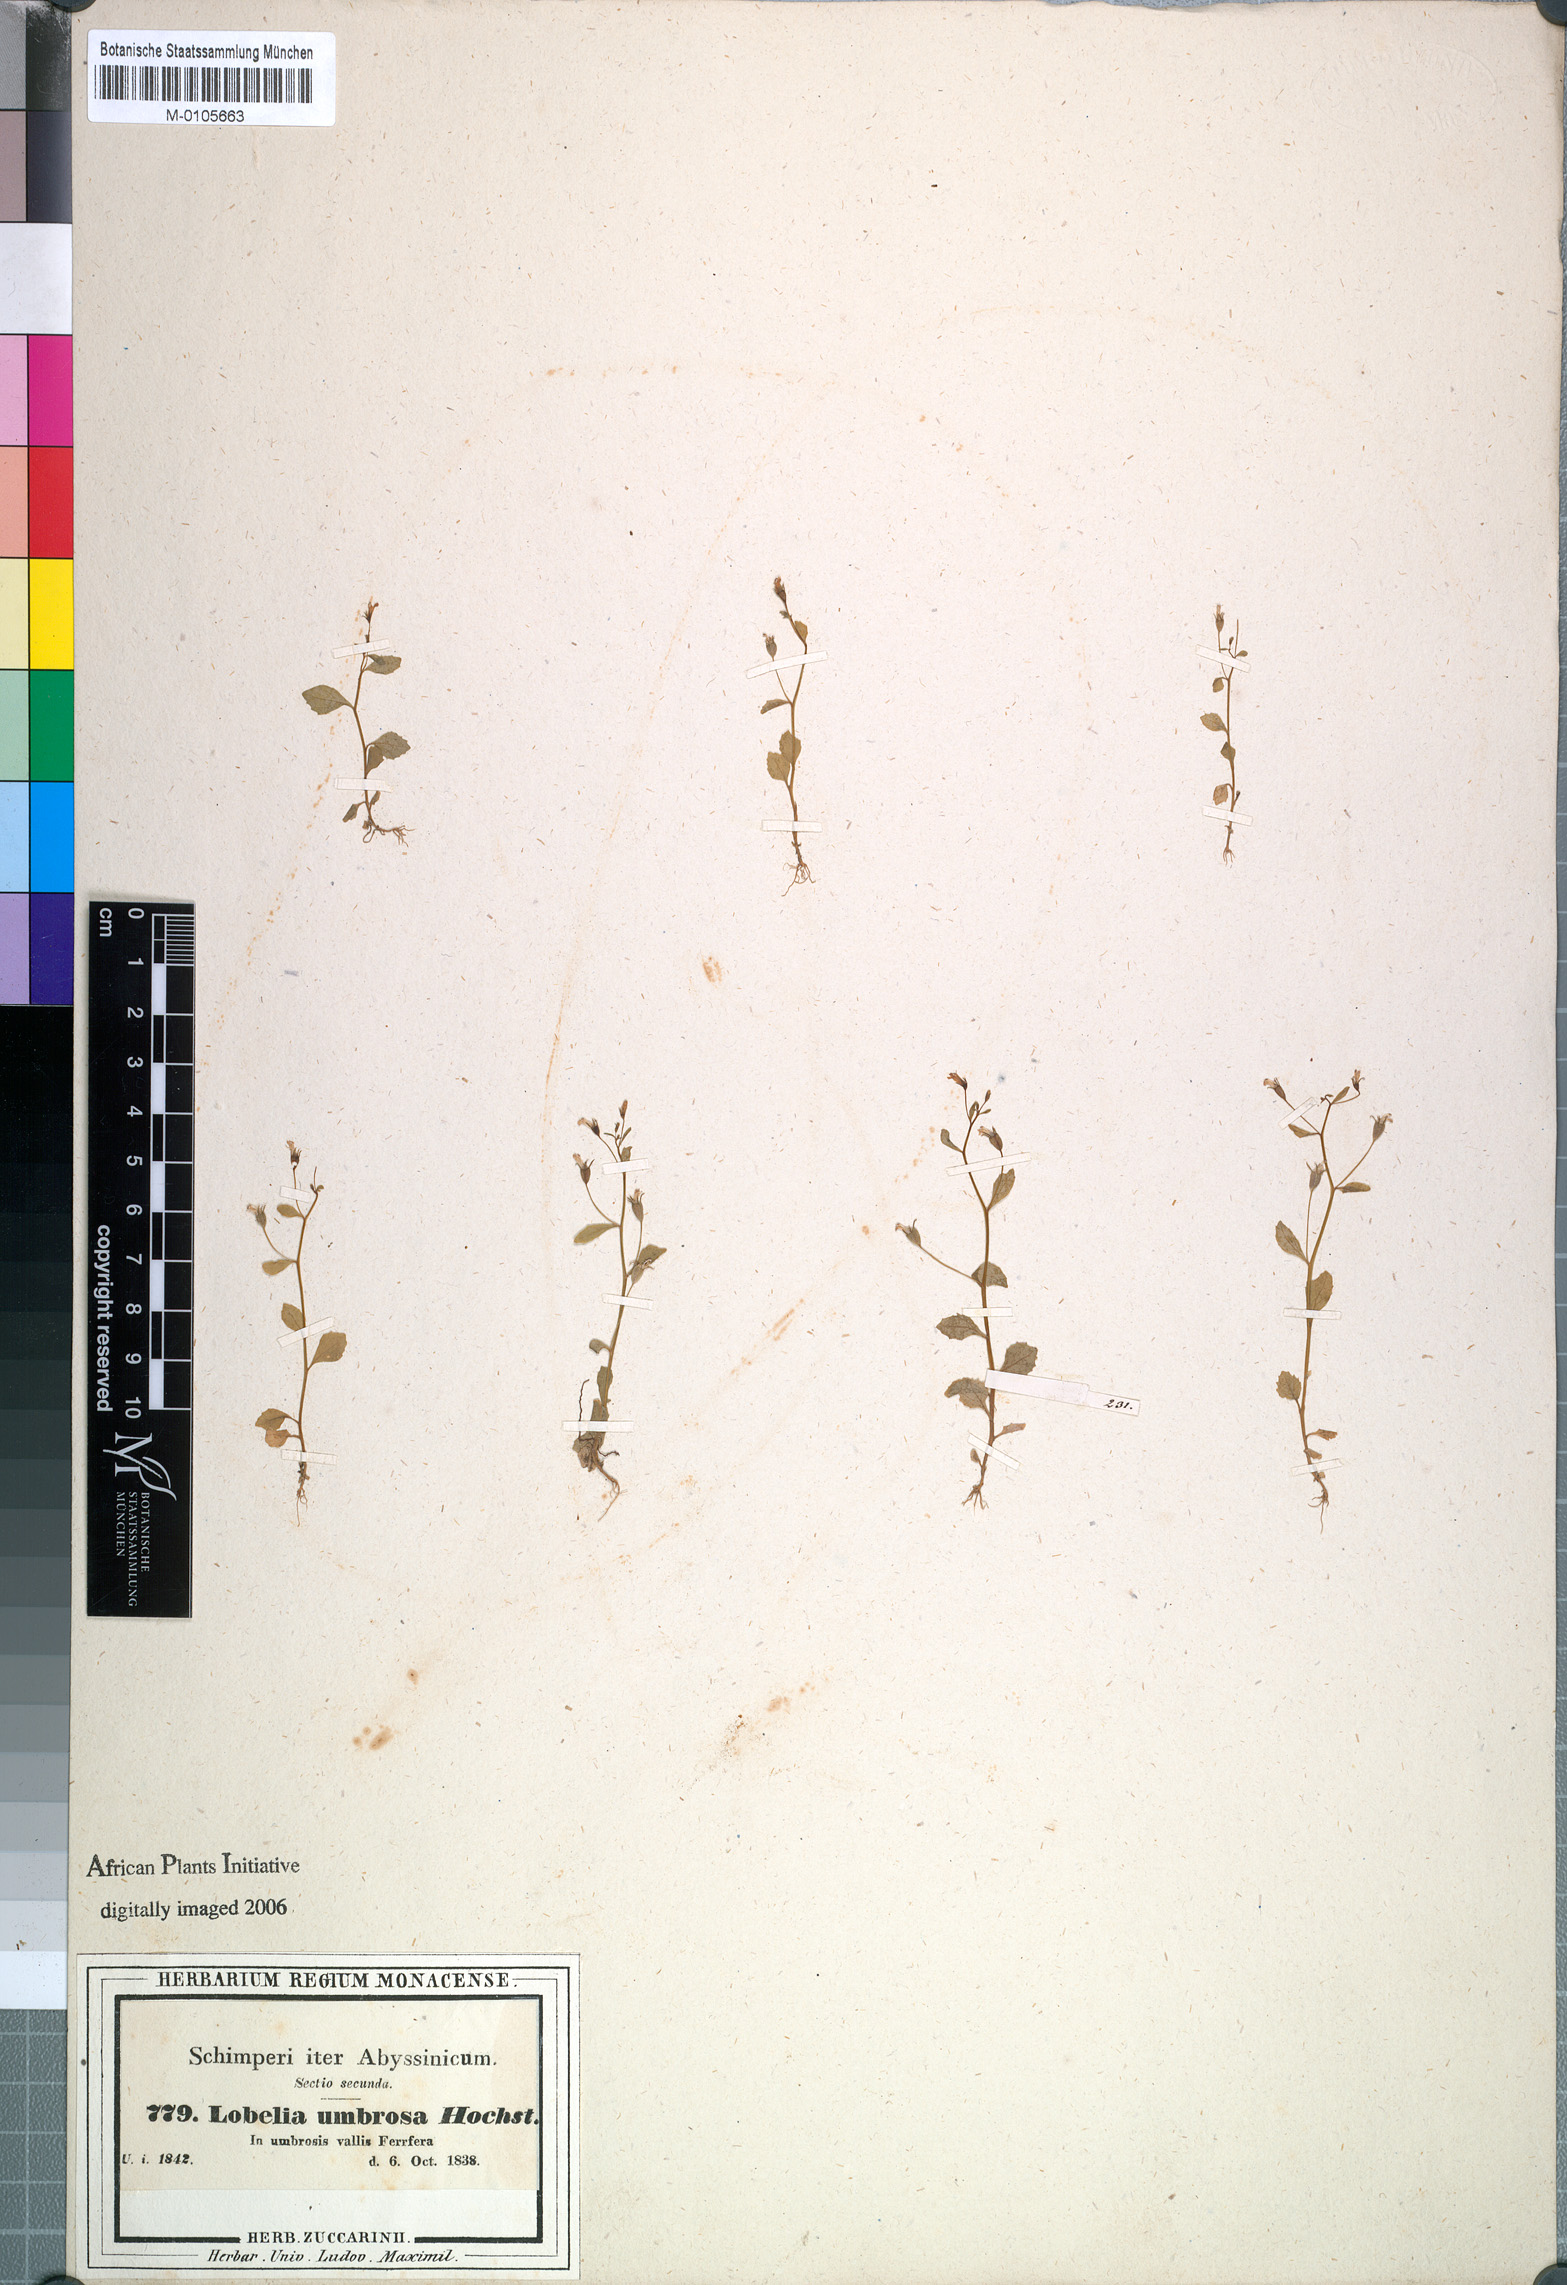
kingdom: Plantae
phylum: Tracheophyta
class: Magnoliopsida
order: Asterales
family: Campanulaceae
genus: Lobelia
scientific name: Lobelia heyneana
